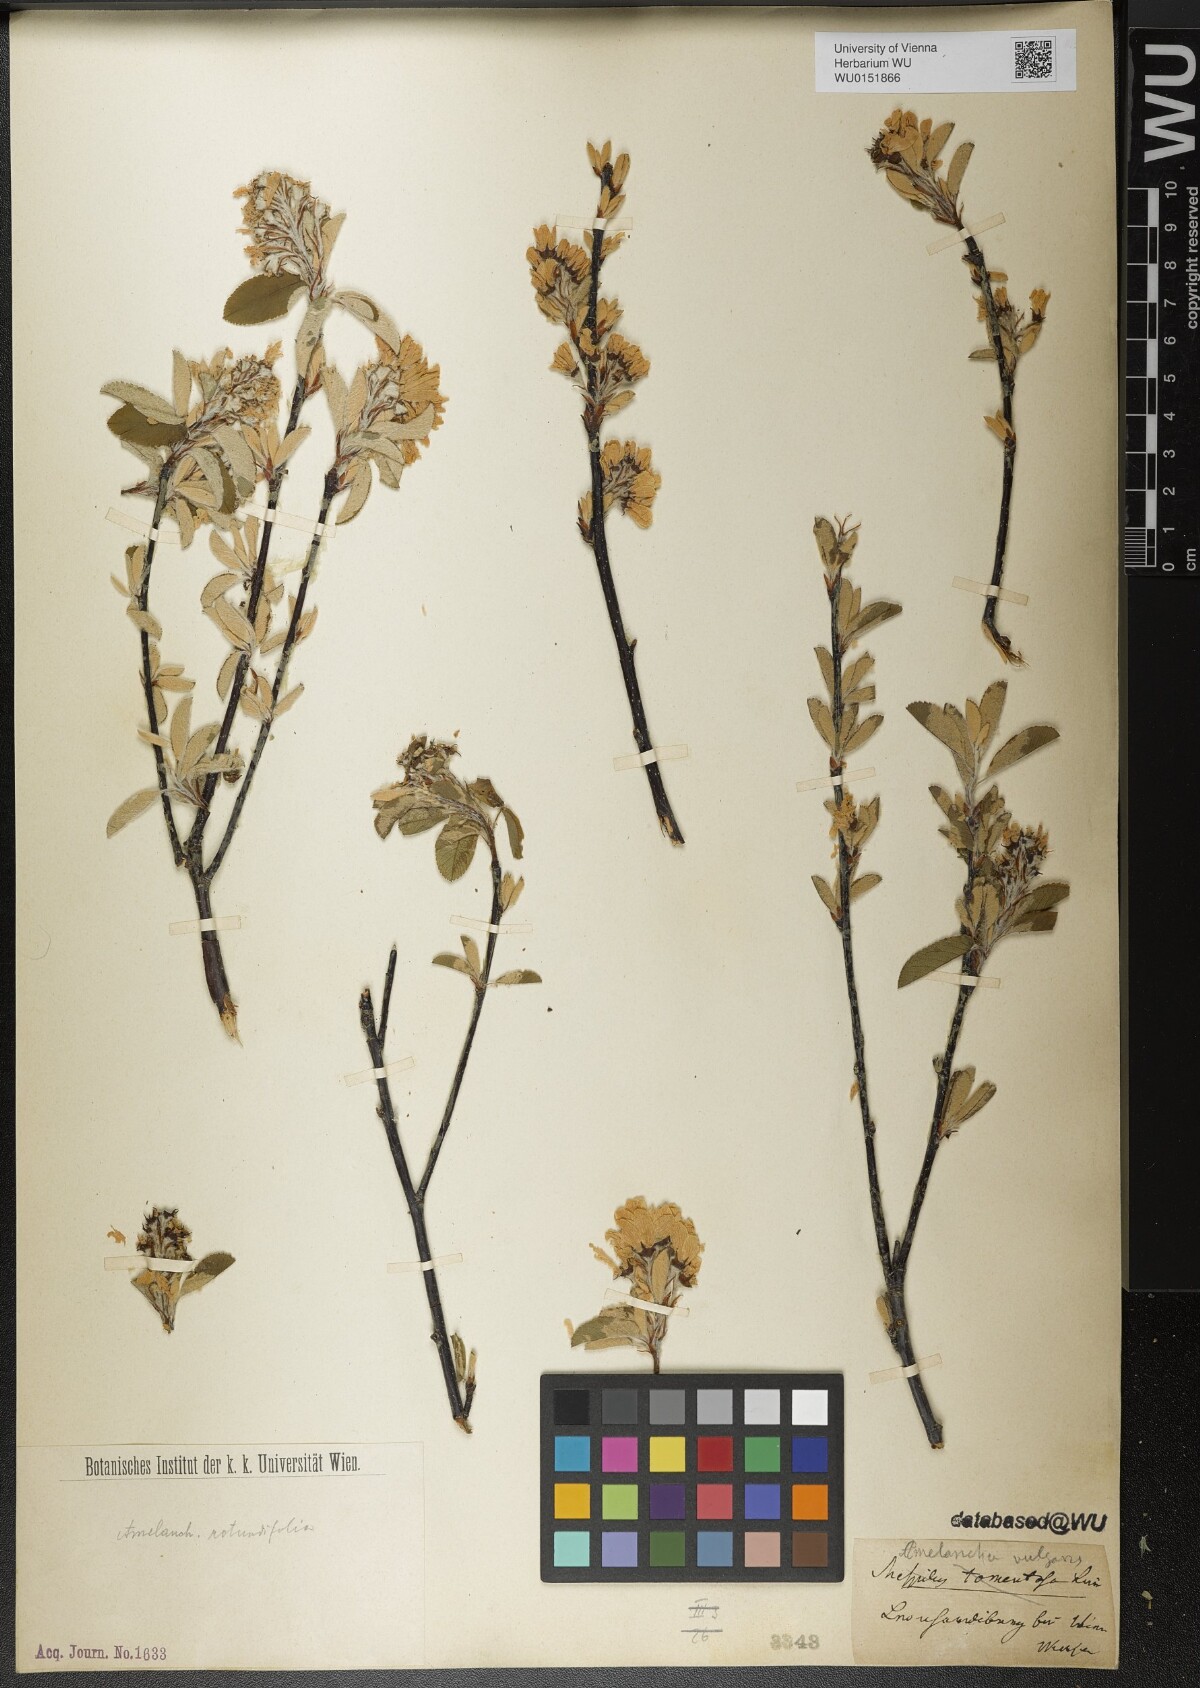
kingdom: Plantae
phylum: Tracheophyta
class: Magnoliopsida
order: Rosales
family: Rosaceae
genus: Amelanchier
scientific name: Amelanchier ovalis
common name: Serviceberry
